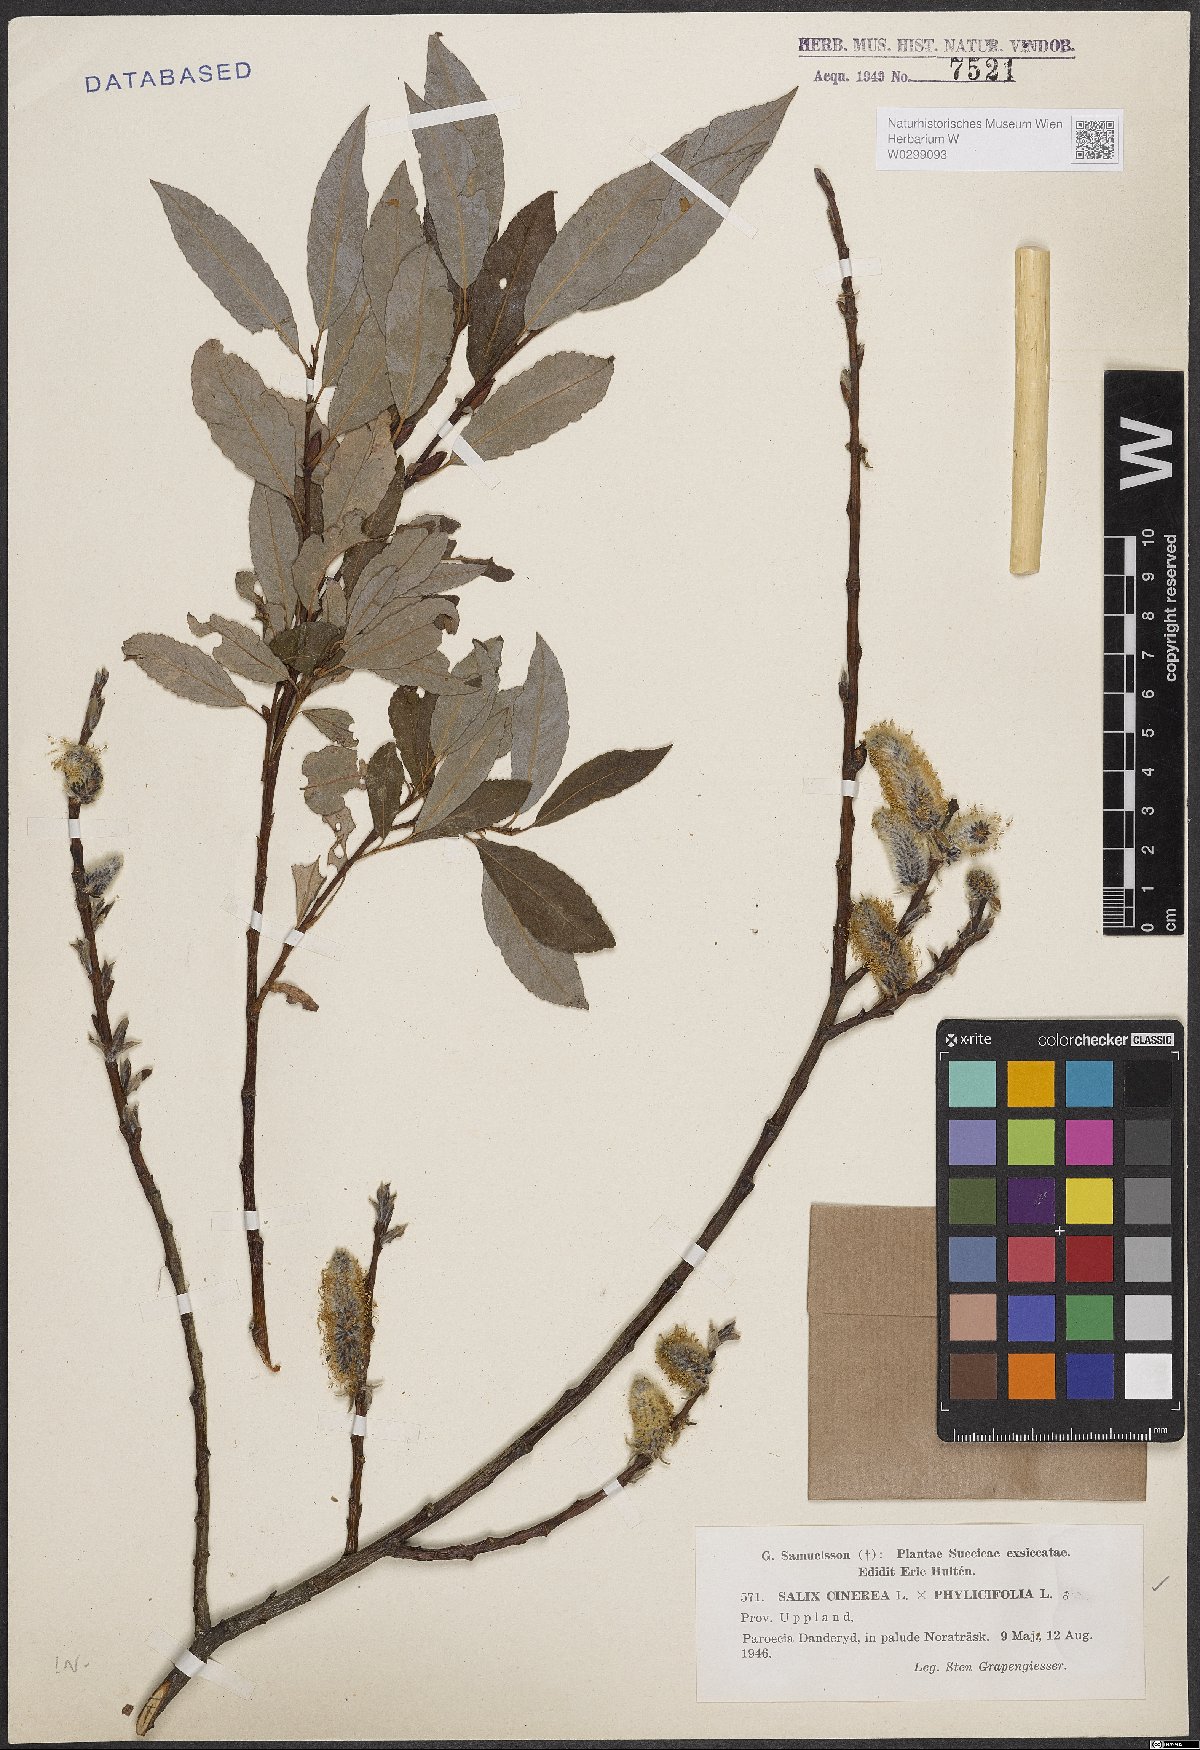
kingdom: Plantae
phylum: Tracheophyta
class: Magnoliopsida
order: Malpighiales
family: Salicaceae
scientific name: Salicaceae
